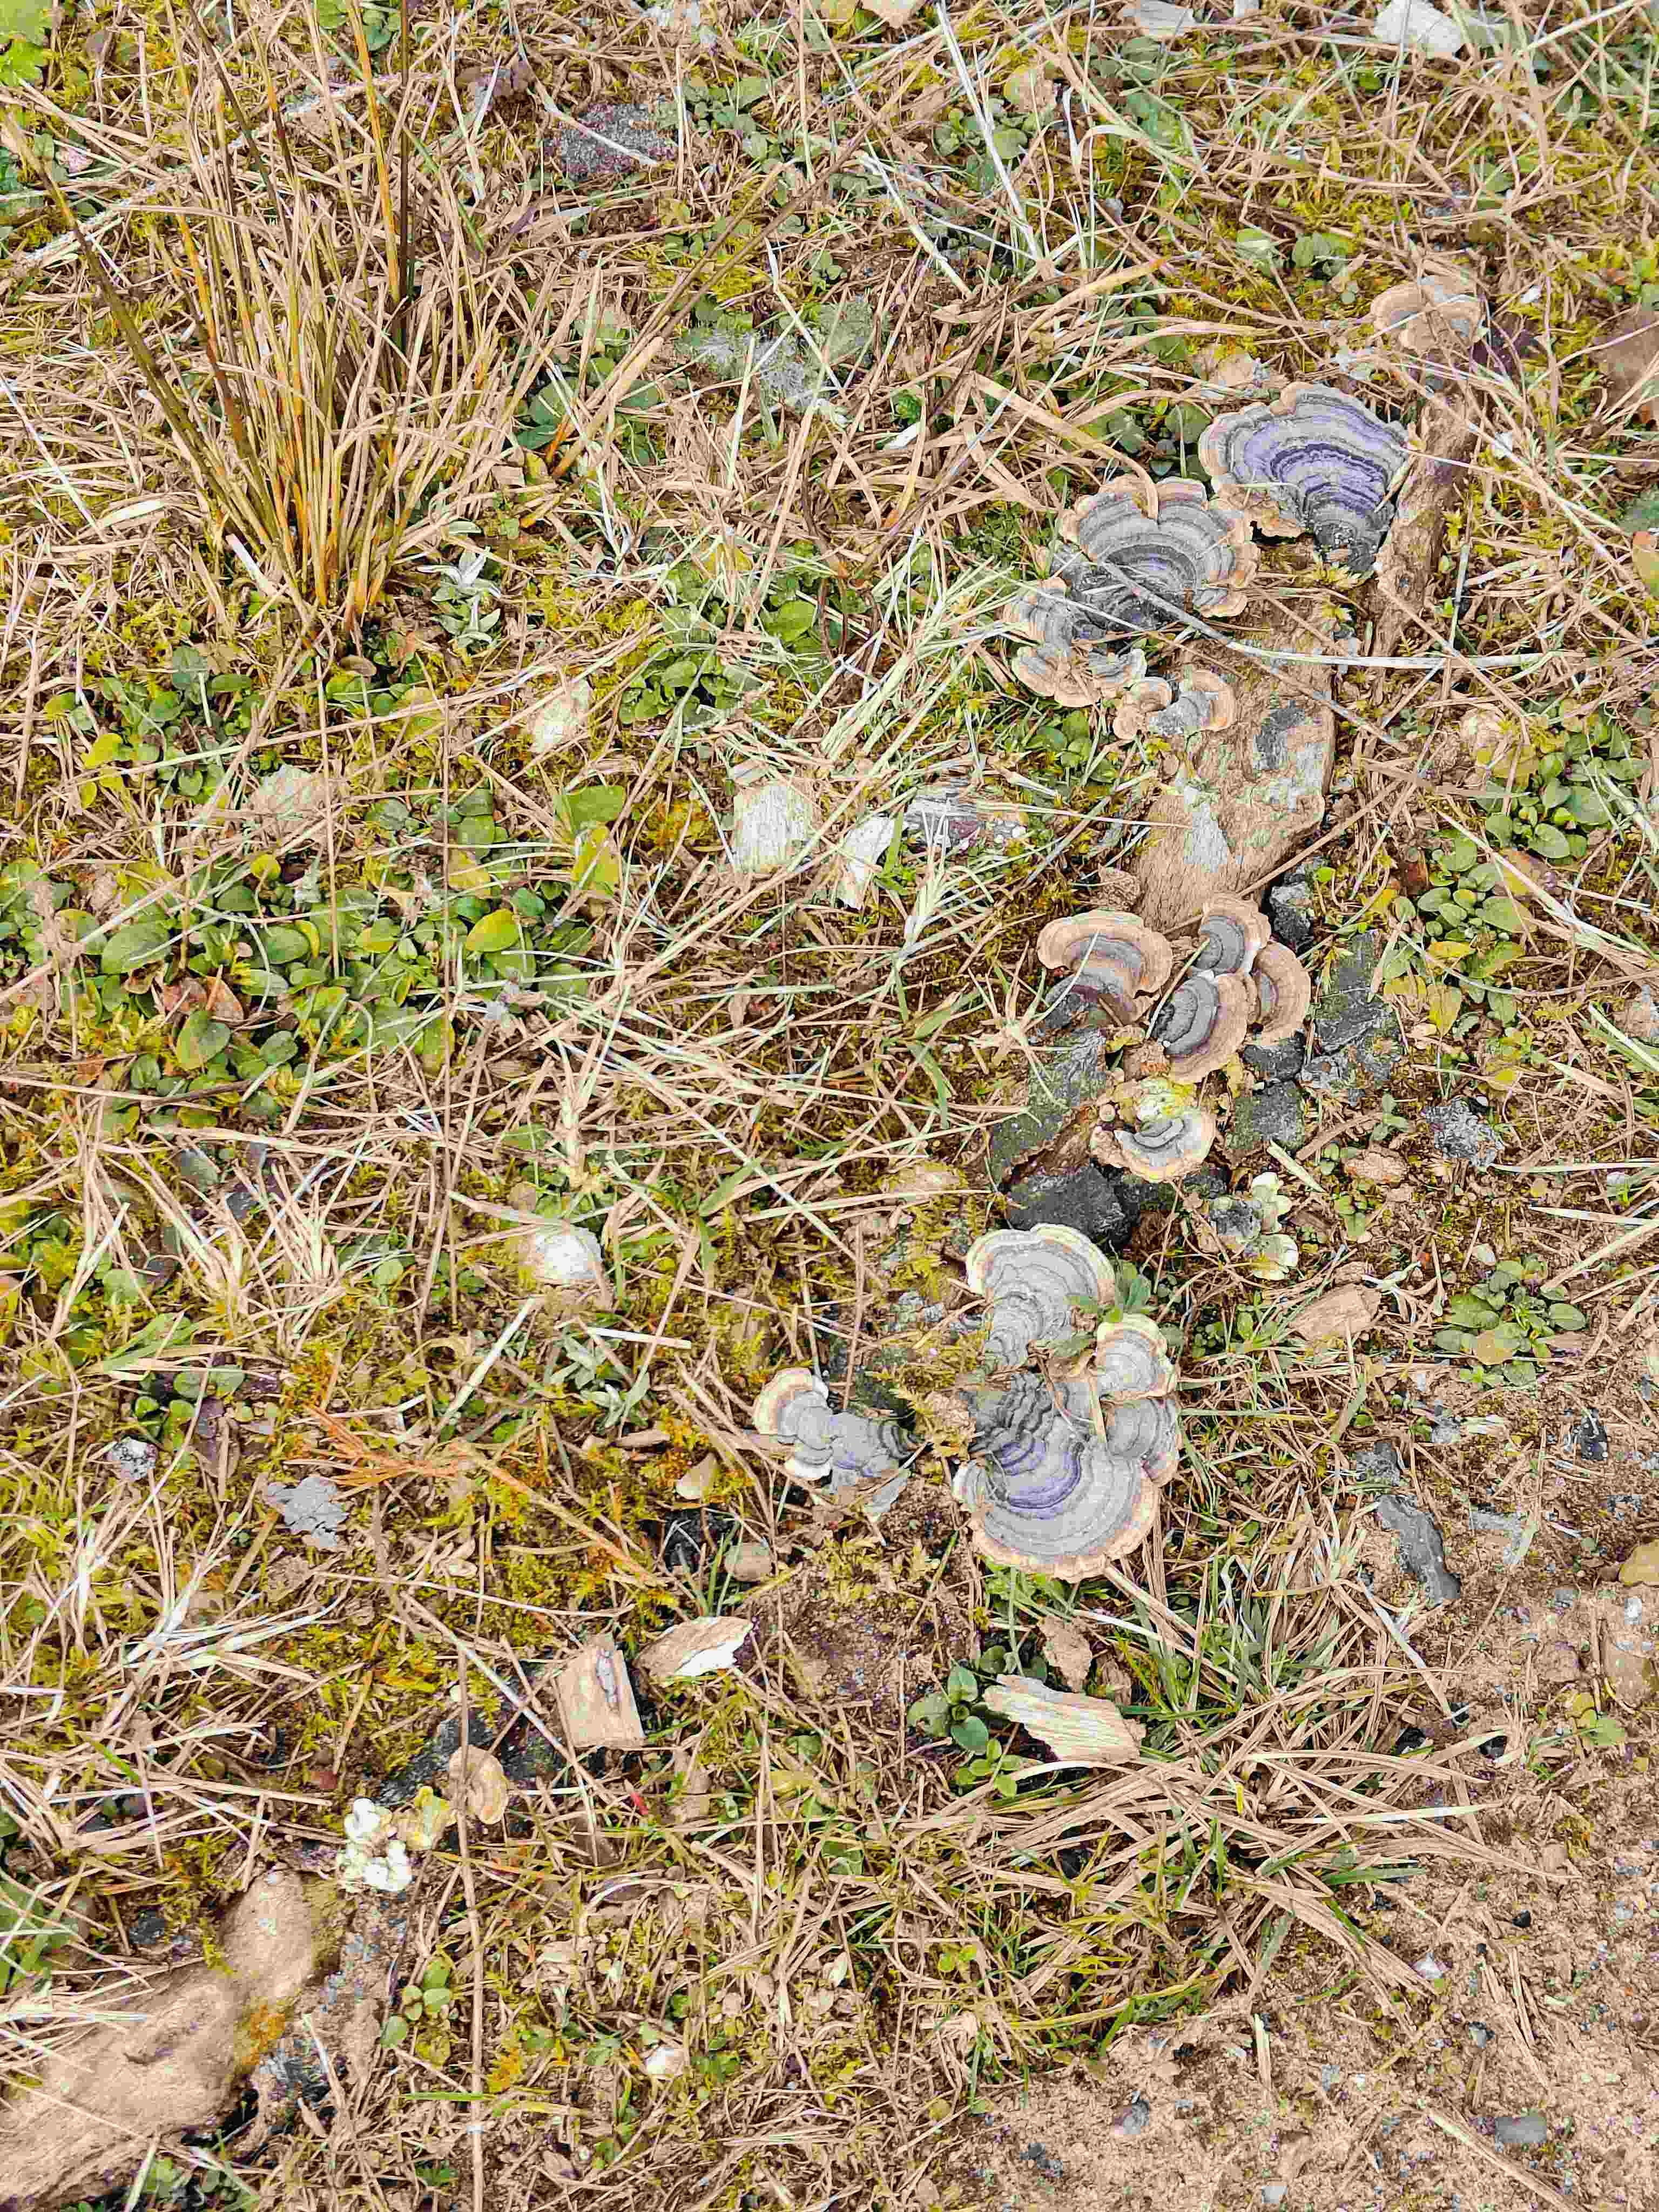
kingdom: Fungi
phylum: Basidiomycota
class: Agaricomycetes
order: Polyporales
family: Polyporaceae
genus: Trametes
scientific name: Trametes versicolor
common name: broget læderporesvamp
